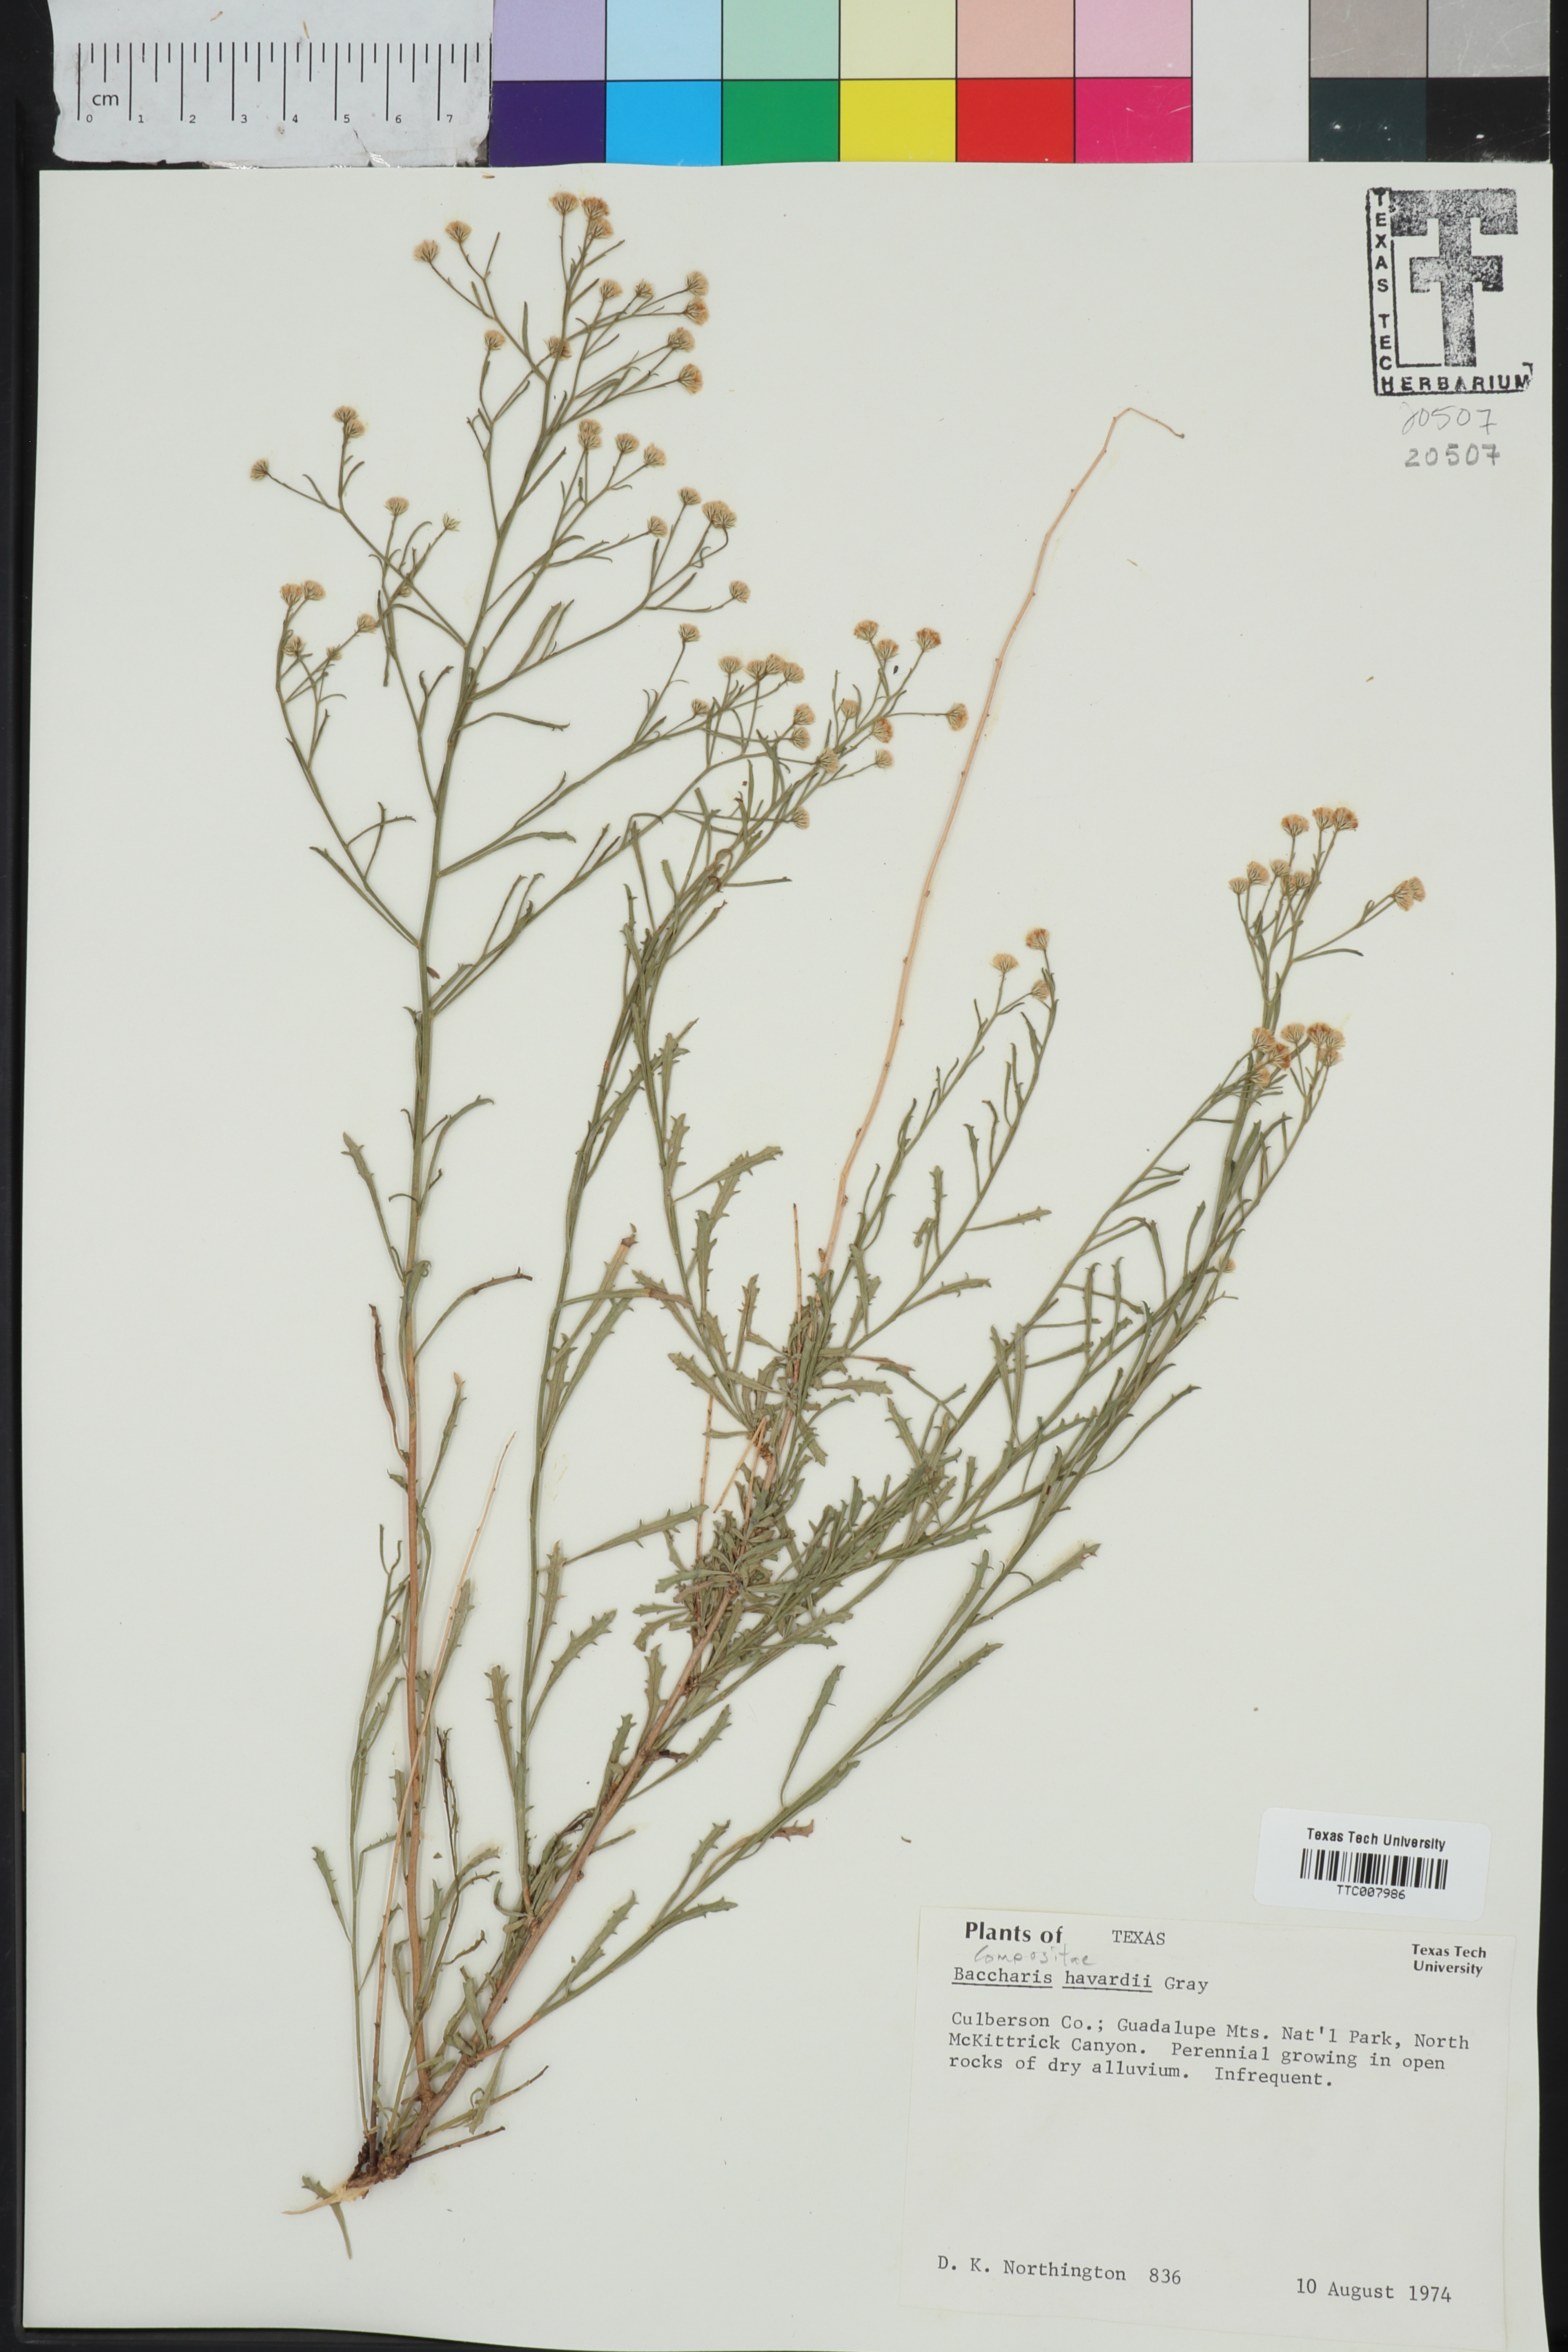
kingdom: Plantae
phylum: Tracheophyta
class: Magnoliopsida
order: Asterales
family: Asteraceae
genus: Baccharis
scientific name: Baccharis havardii
